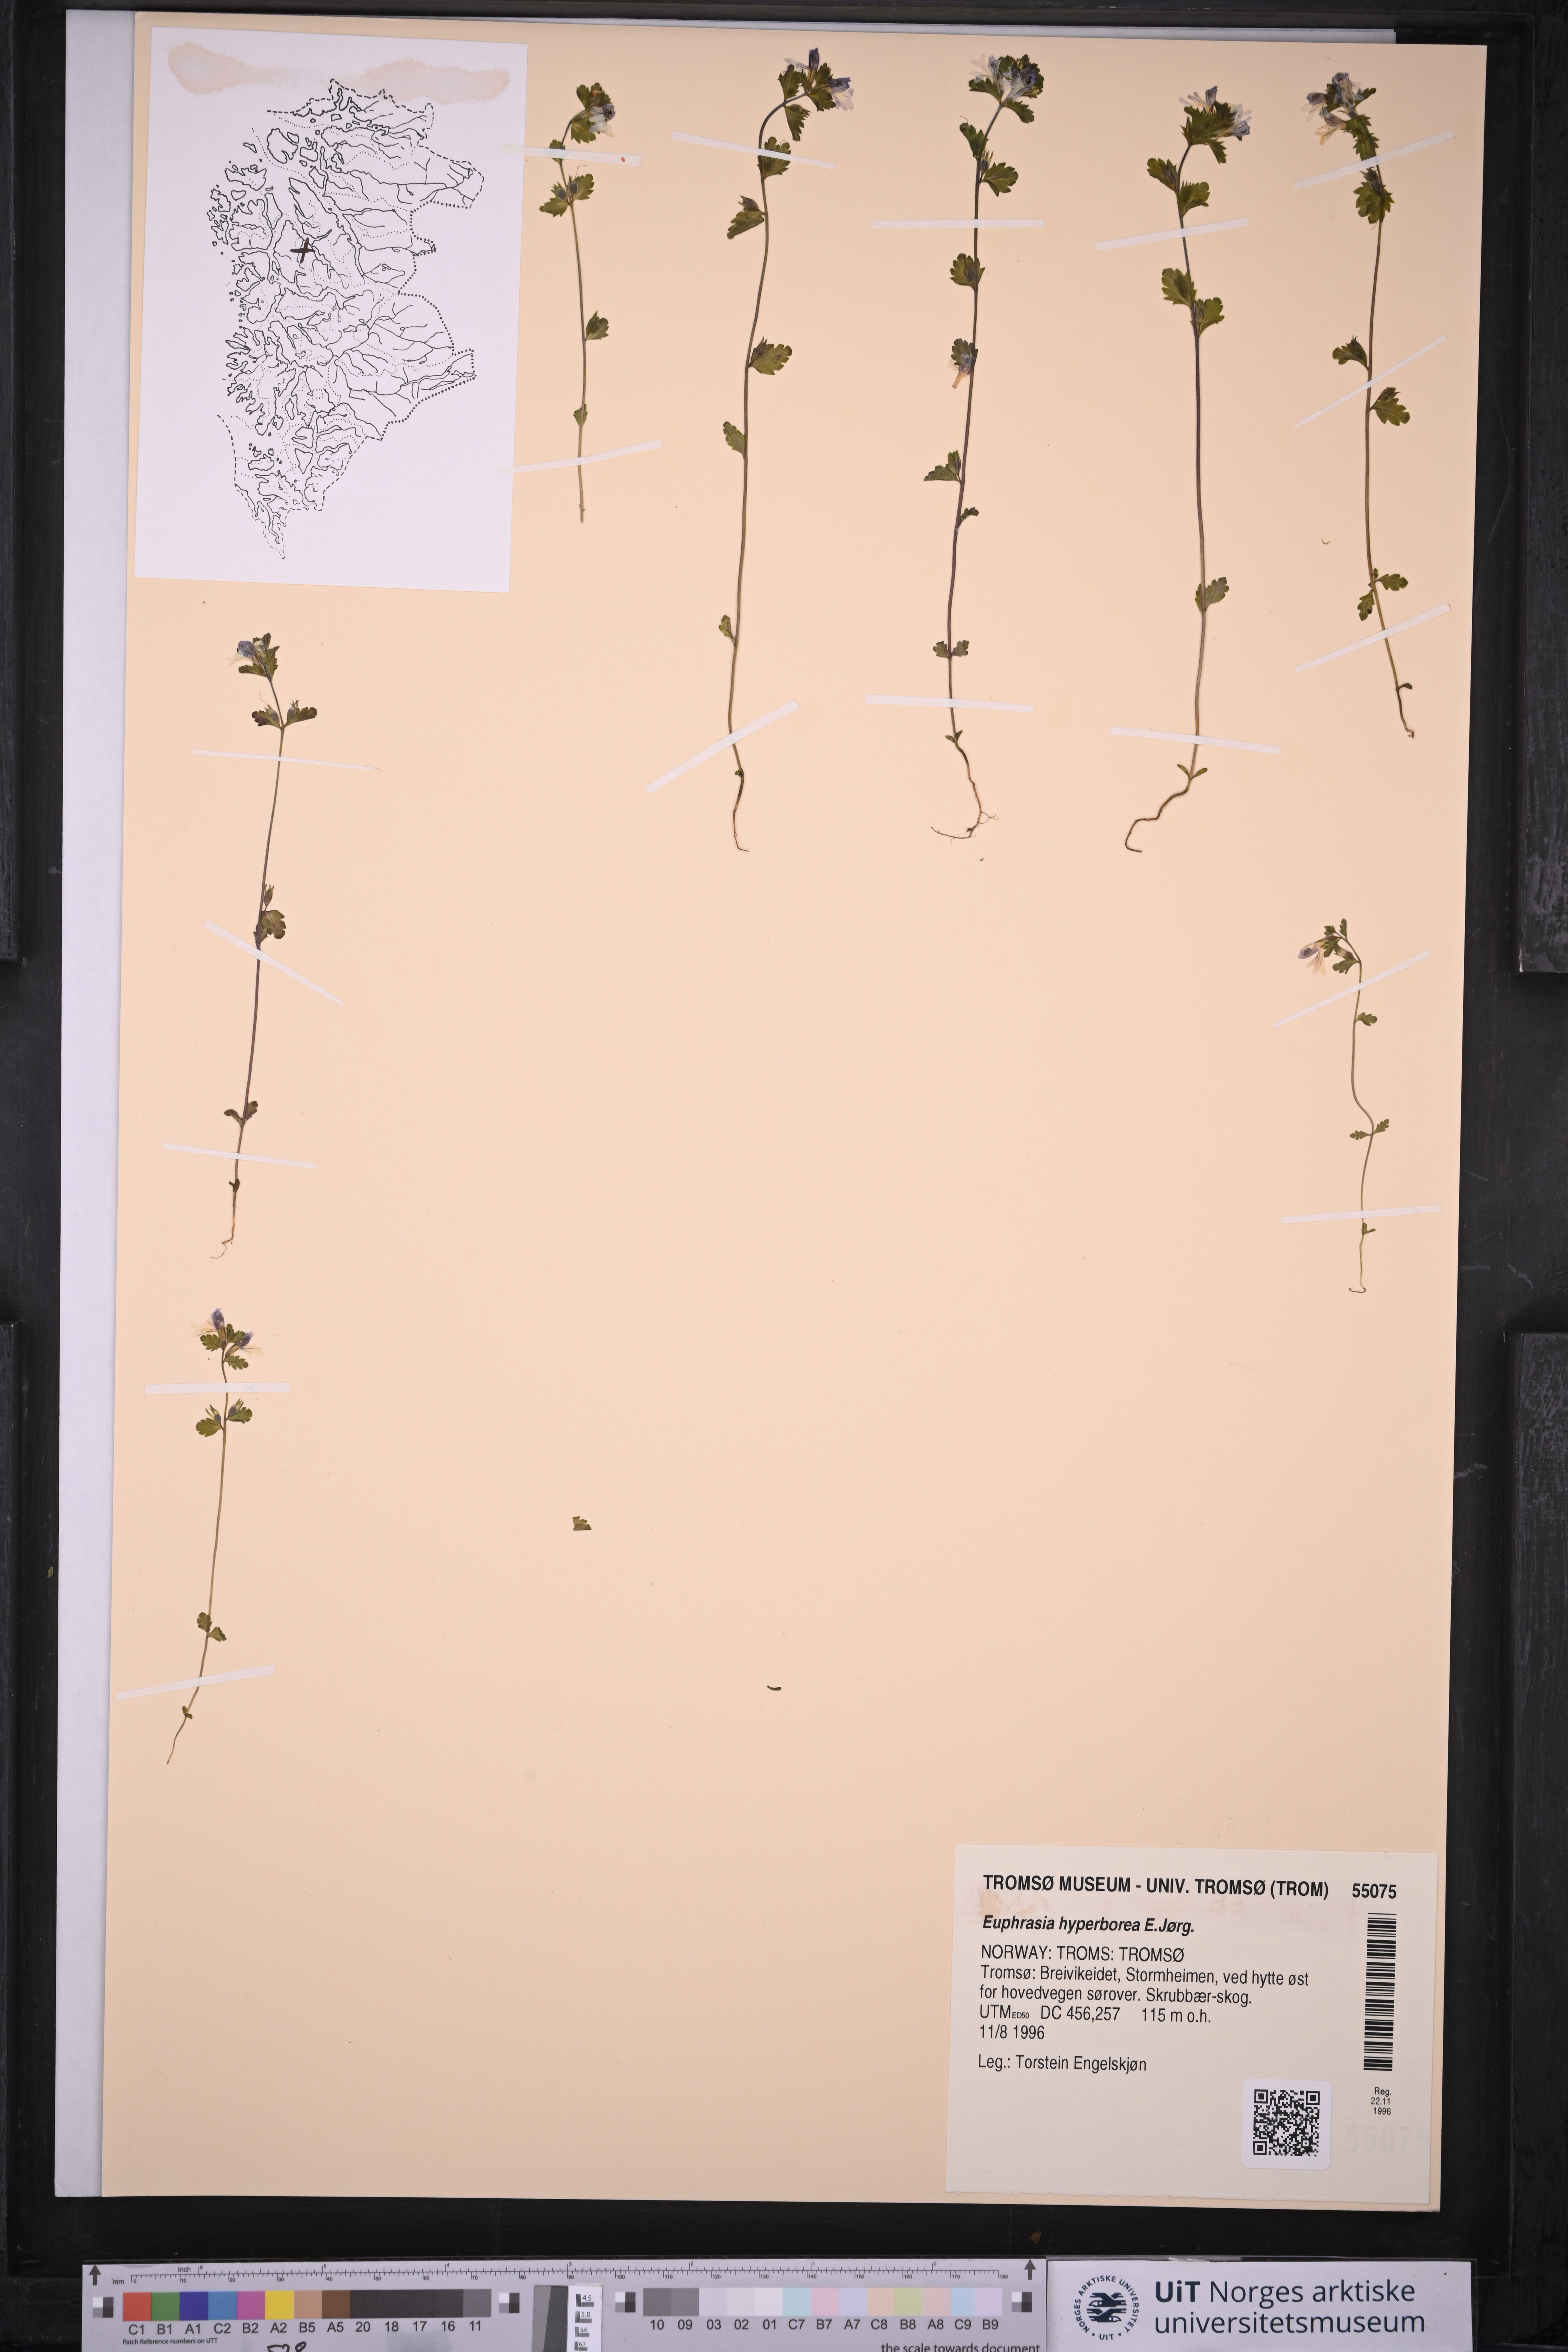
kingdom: Plantae
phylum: Tracheophyta
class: Magnoliopsida
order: Lamiales
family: Orobanchaceae
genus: Euphrasia
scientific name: Euphrasia hyperborea
